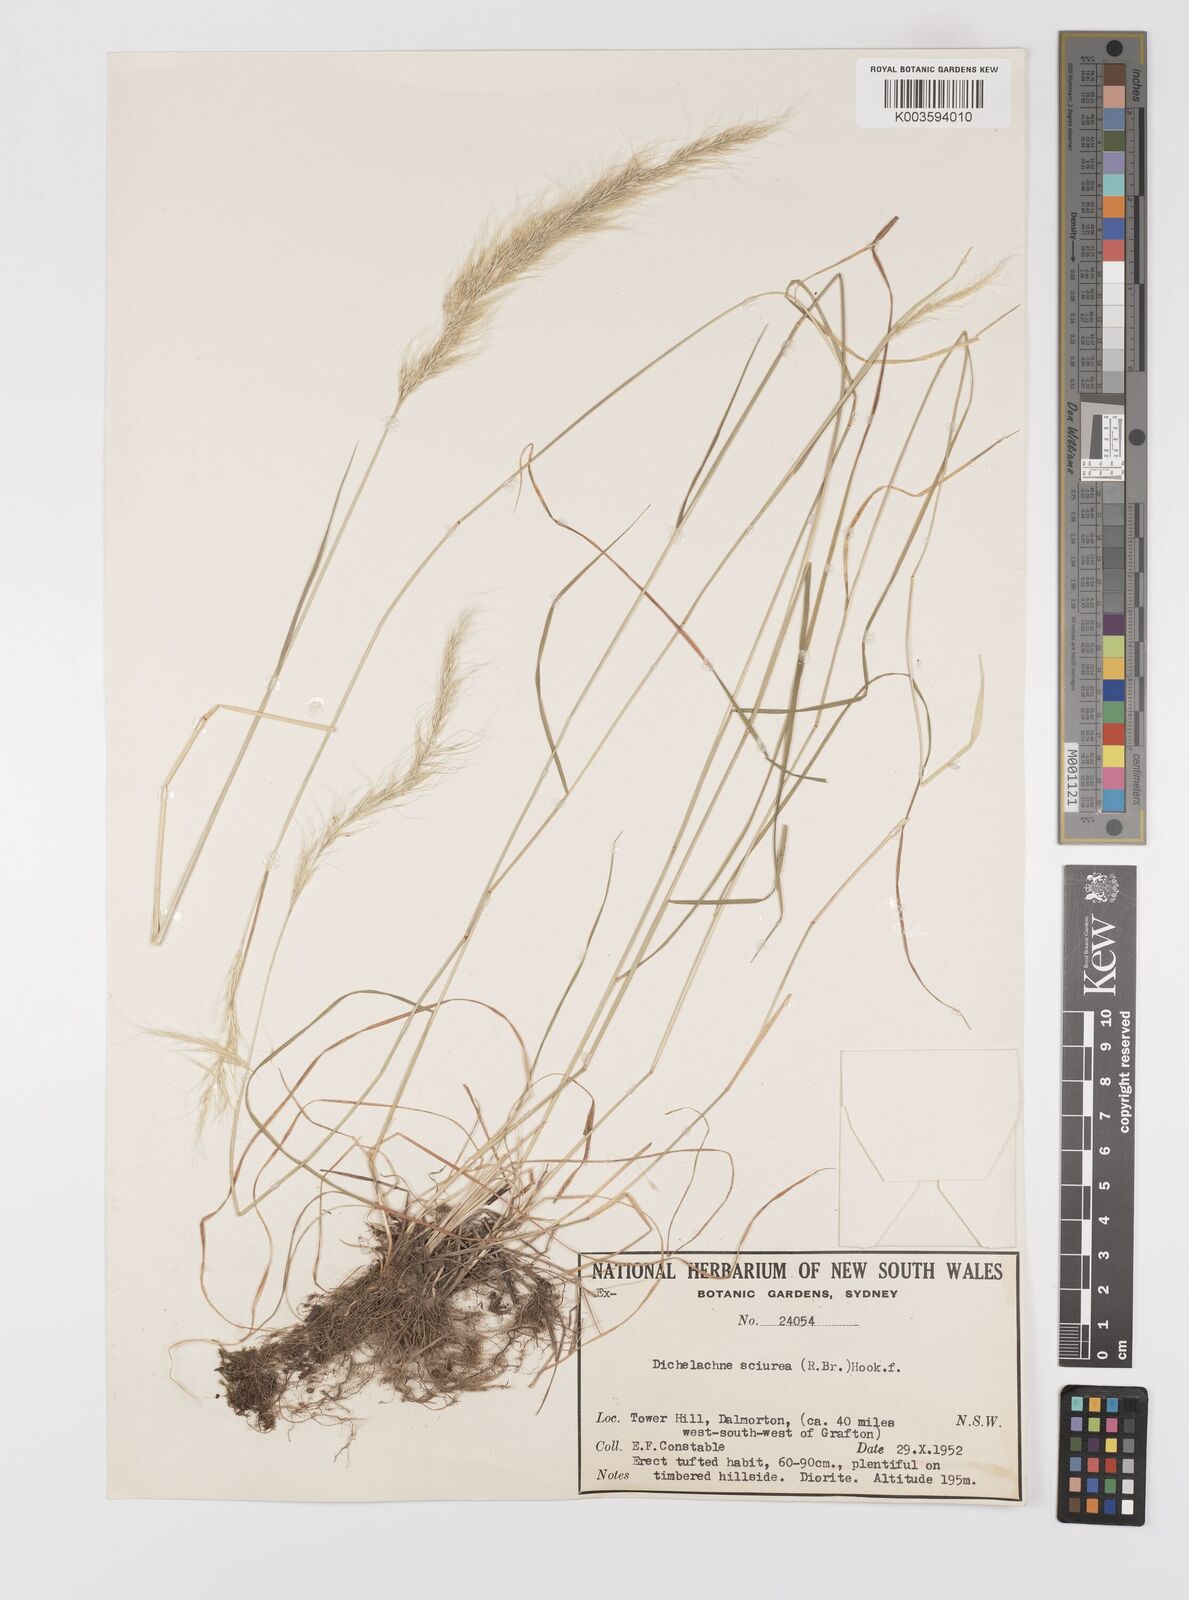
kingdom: Plantae
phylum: Tracheophyta
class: Liliopsida
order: Poales
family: Poaceae
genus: Dichelachne
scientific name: Dichelachne micrantha
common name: Plumegrass
